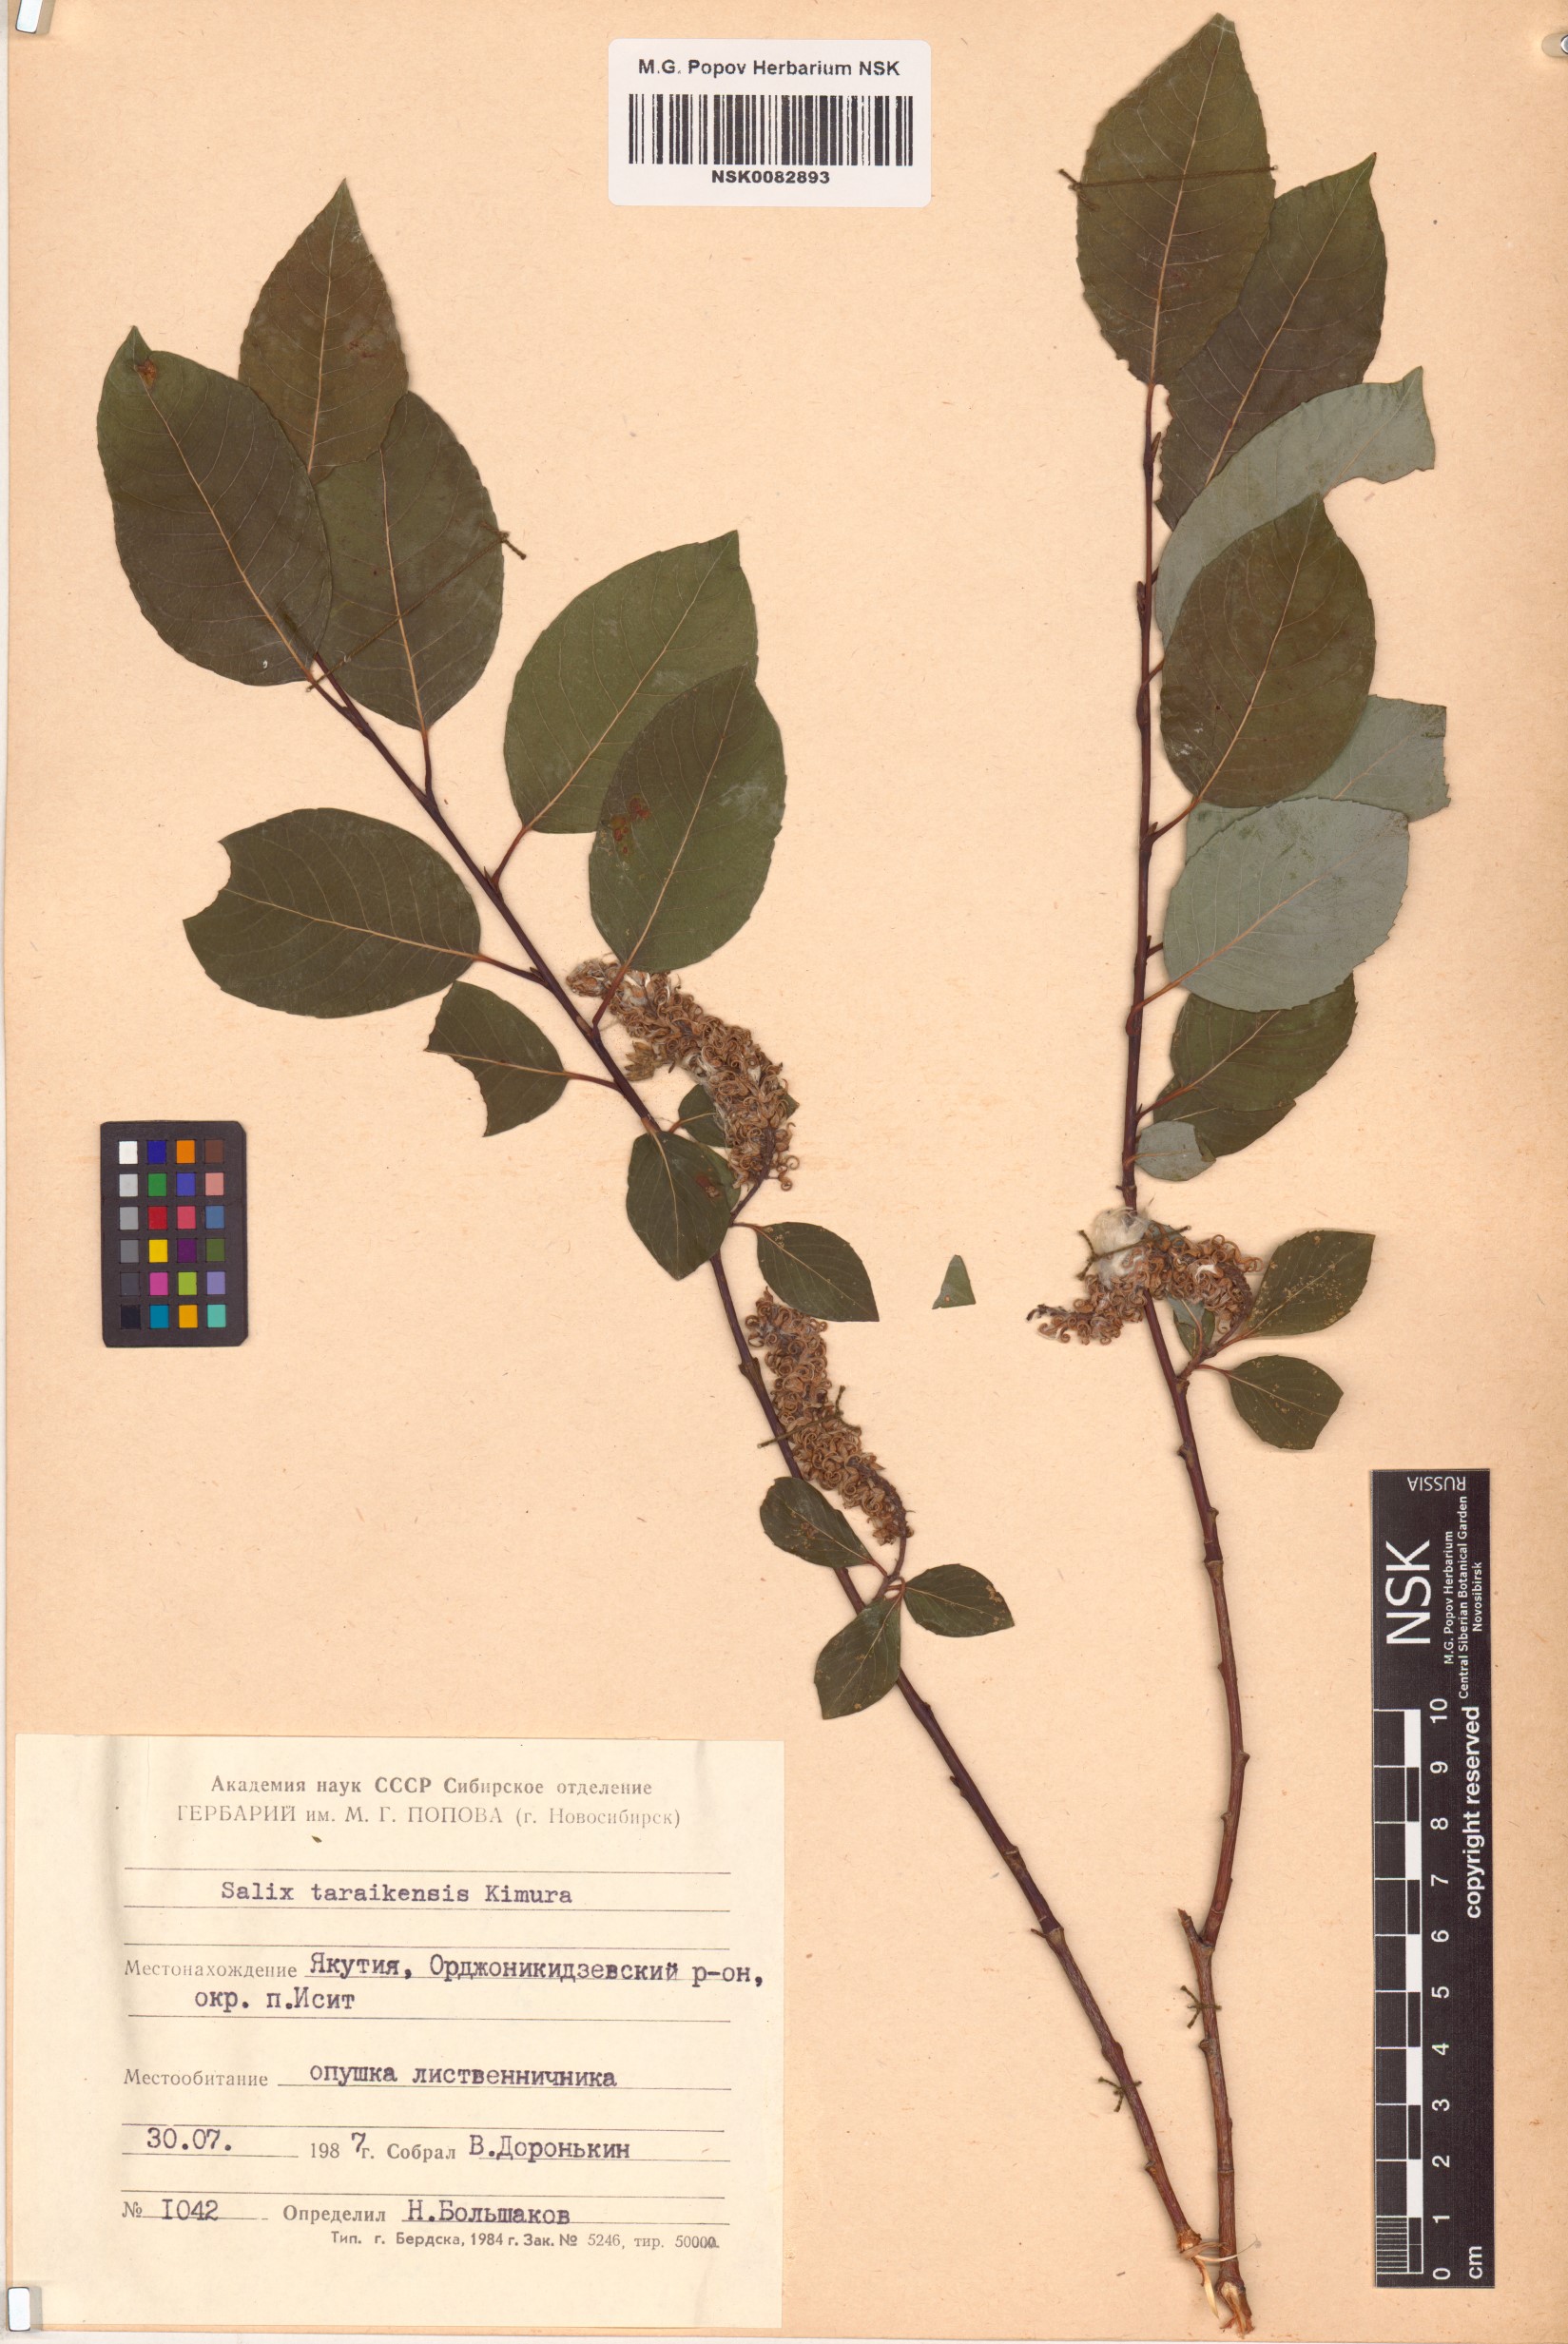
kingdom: Plantae
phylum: Tracheophyta
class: Magnoliopsida
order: Malpighiales
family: Salicaceae
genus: Salix
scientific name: Salix taraikensis
